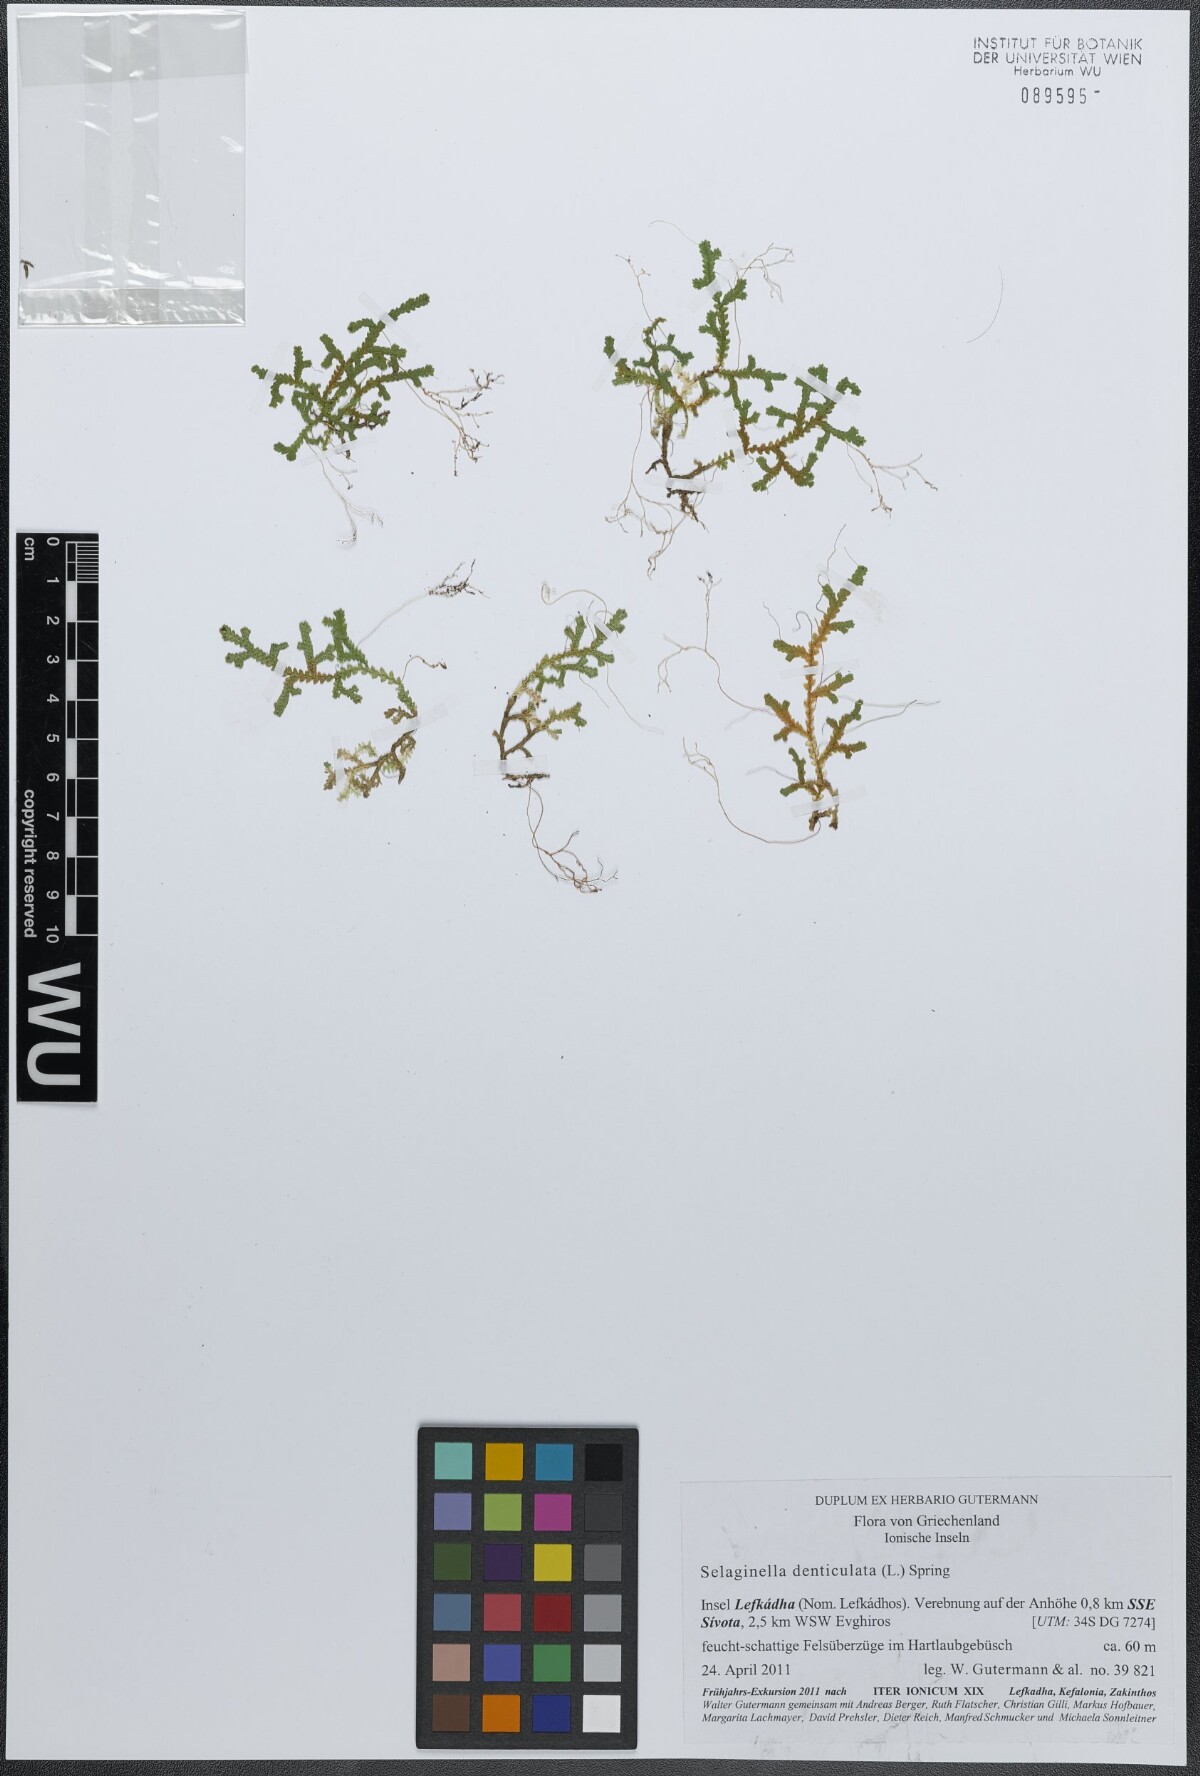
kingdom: Plantae
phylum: Tracheophyta
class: Lycopodiopsida
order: Selaginellales
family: Selaginellaceae
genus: Selaginella
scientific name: Selaginella denticulata
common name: Toothed-leaved clubmoss
